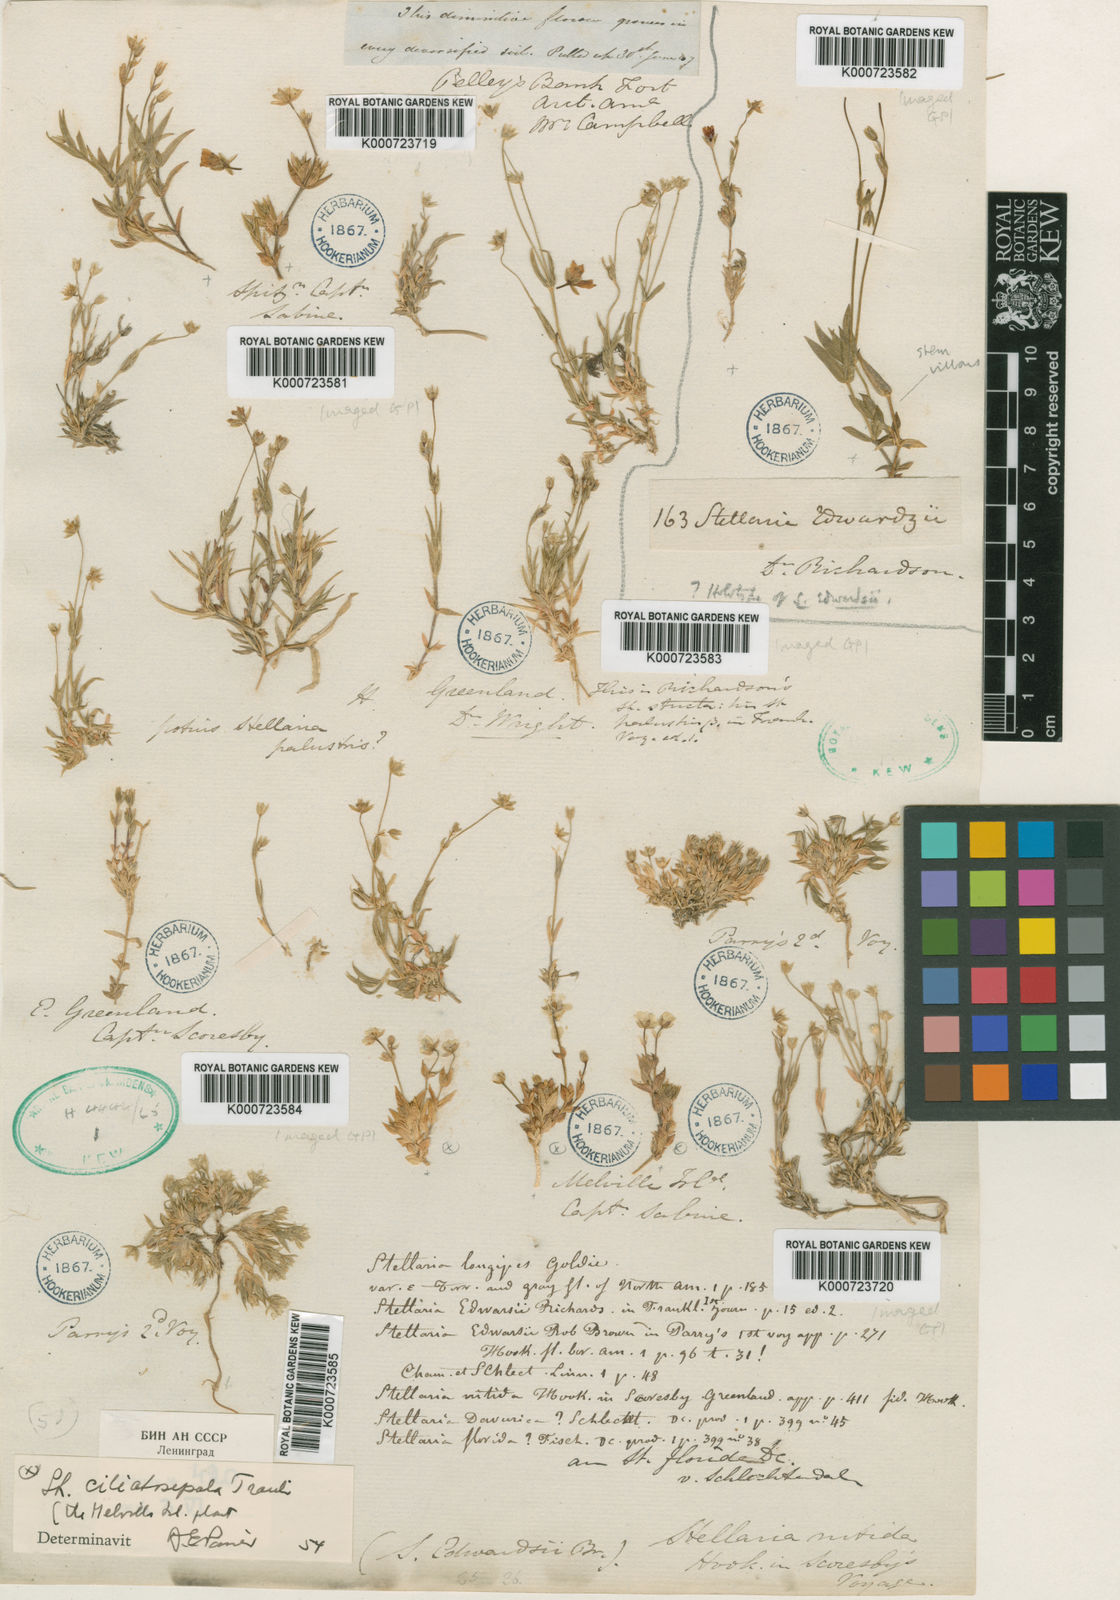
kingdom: Plantae
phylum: Tracheophyta
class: Magnoliopsida
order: Caryophyllales
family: Caryophyllaceae
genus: Stellaria
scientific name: Stellaria longipes
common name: Goldie's starwort
